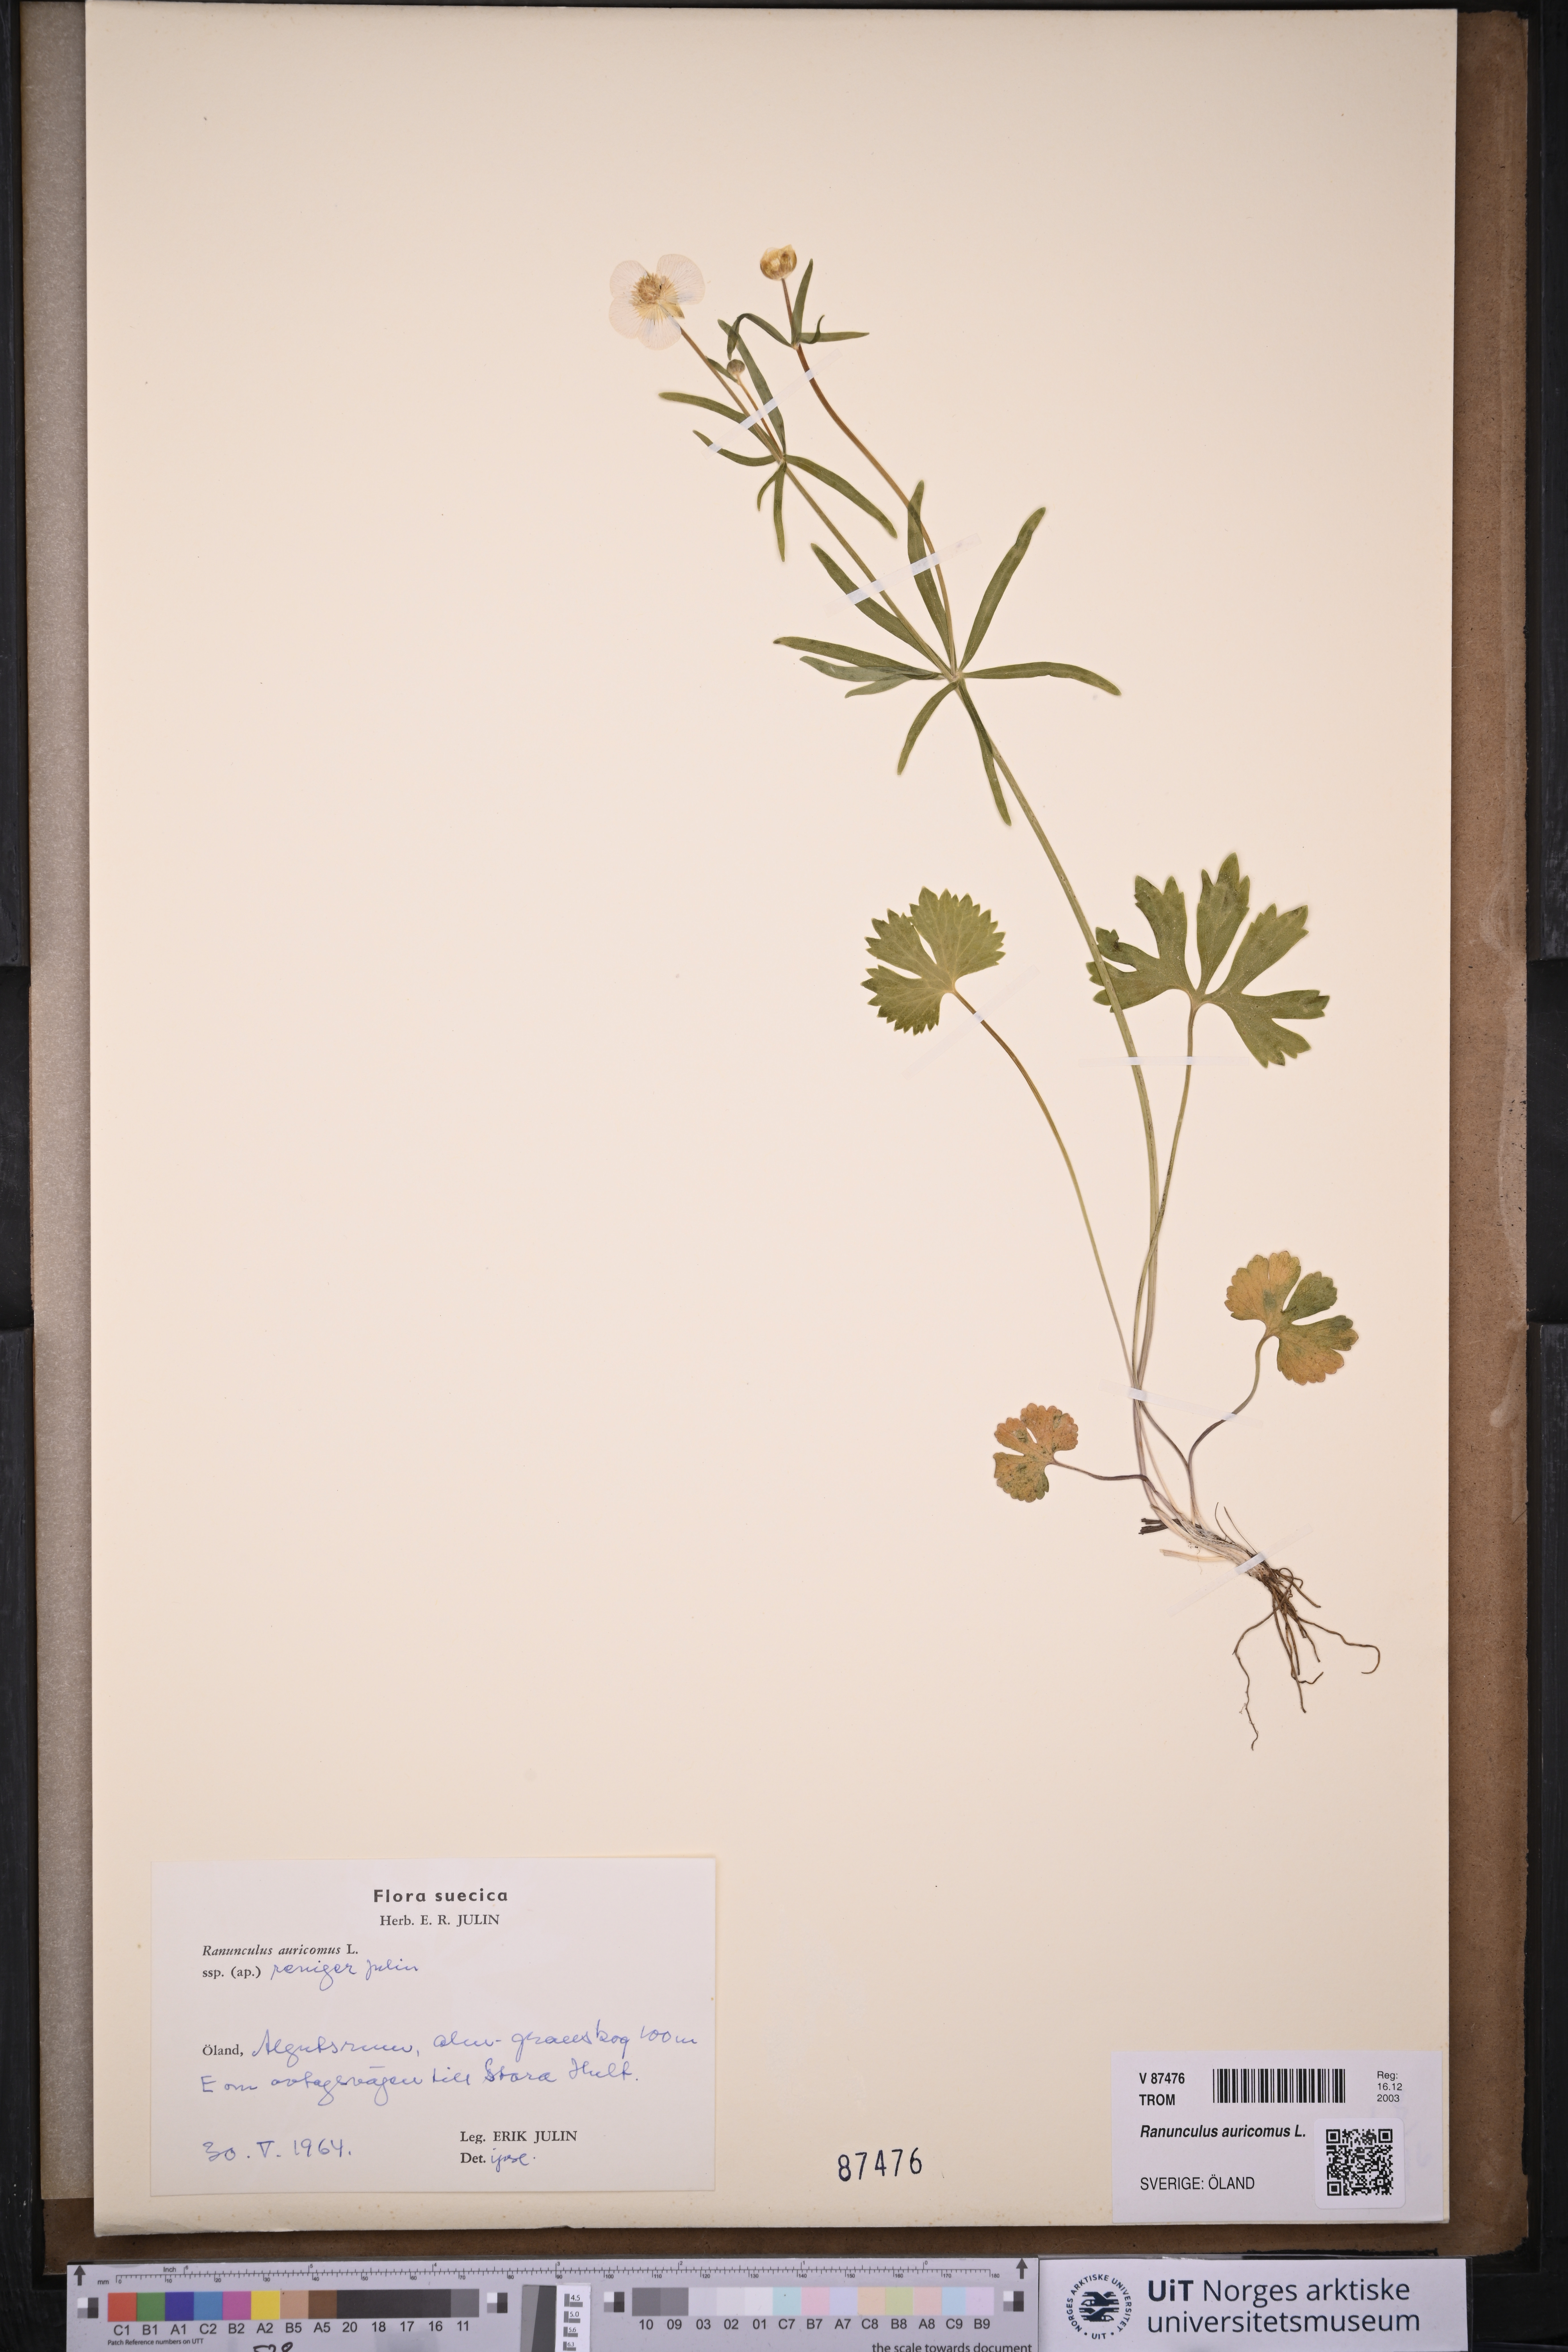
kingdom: Plantae
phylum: Tracheophyta
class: Magnoliopsida
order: Ranunculales
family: Ranunculaceae
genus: Ranunculus
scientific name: Ranunculus auricomus
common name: Goldilocks buttercup
